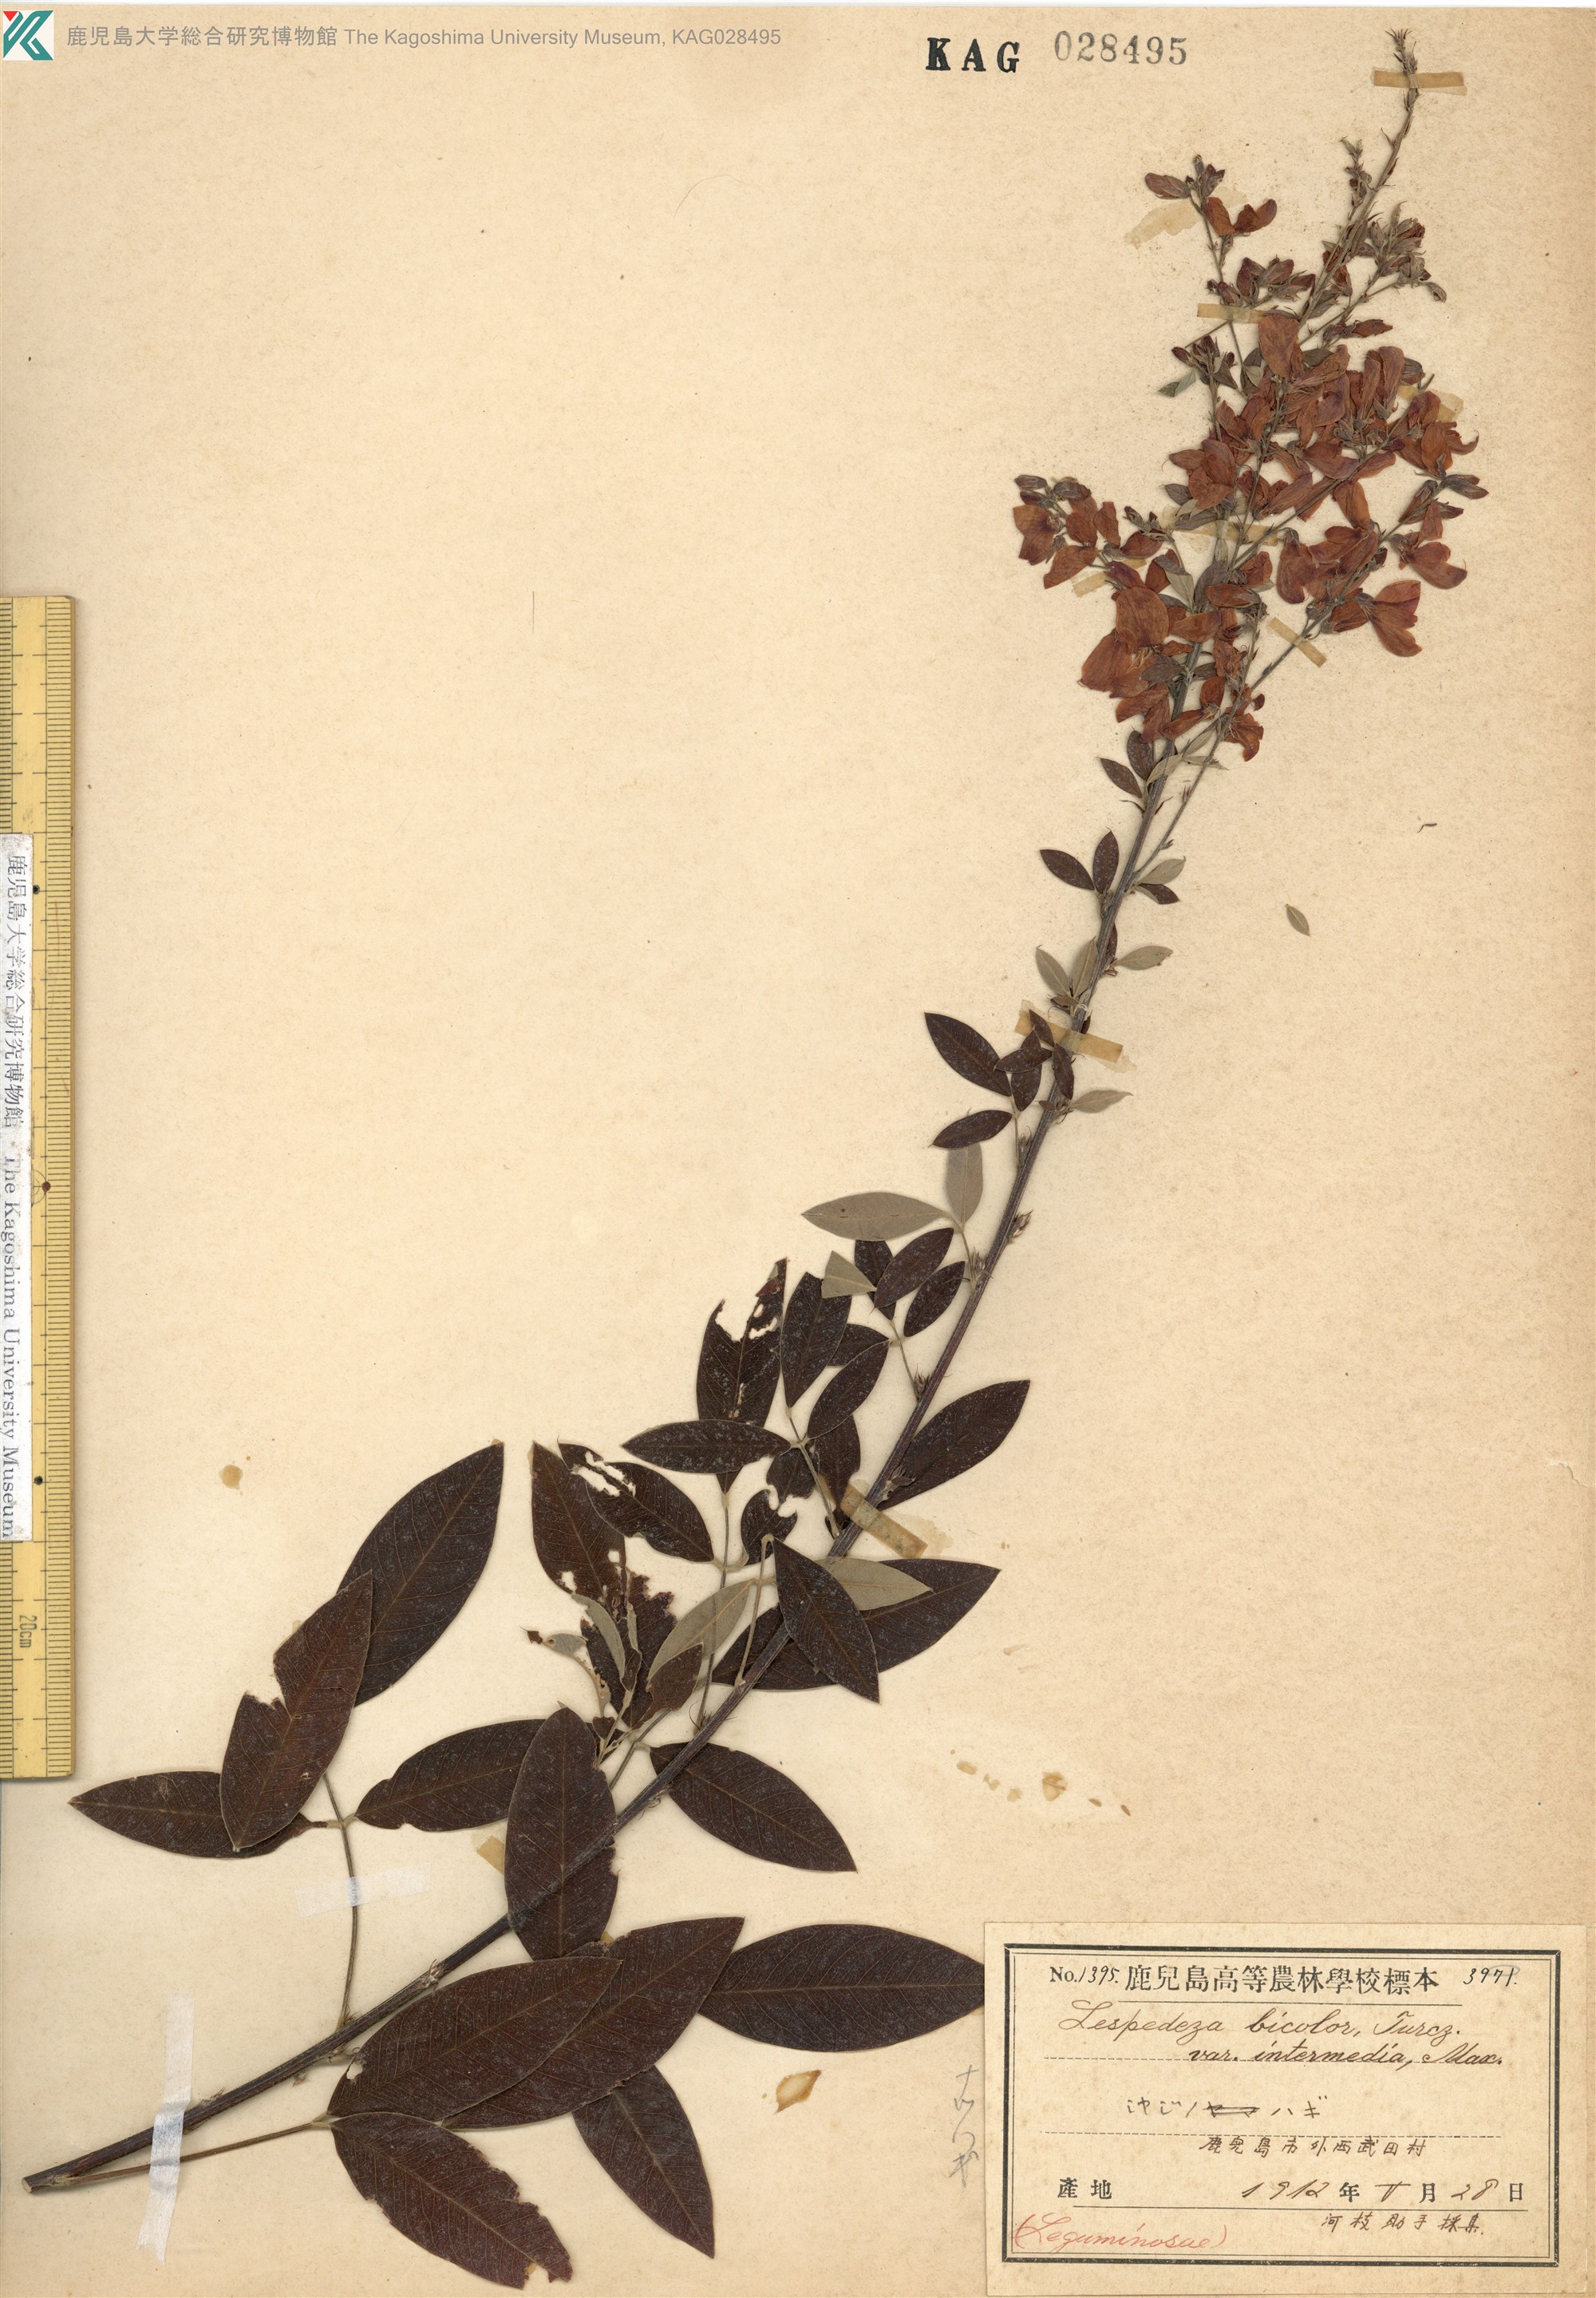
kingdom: Plantae
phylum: Tracheophyta
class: Magnoliopsida
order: Fabales
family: Fabaceae
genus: Lespedeza
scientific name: Lespedeza thunbergii
